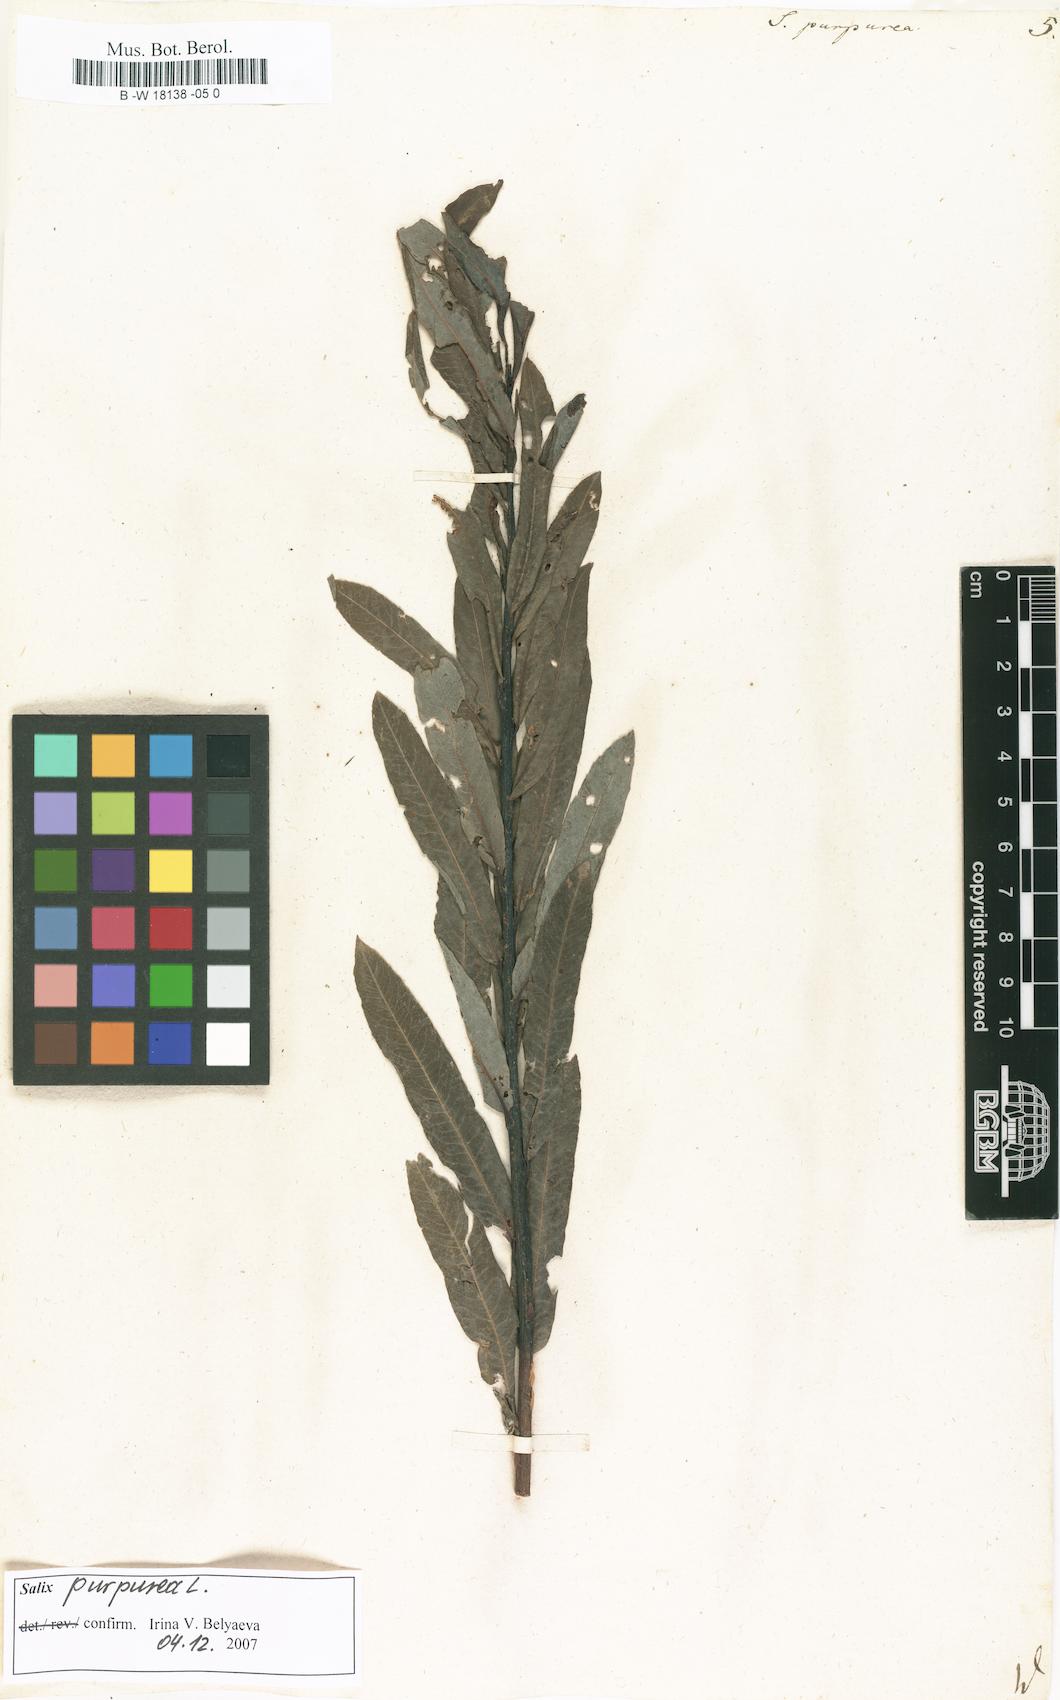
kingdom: Plantae
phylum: Tracheophyta
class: Magnoliopsida
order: Malpighiales
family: Salicaceae
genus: Salix
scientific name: Salix purpurea
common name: Purple willow
